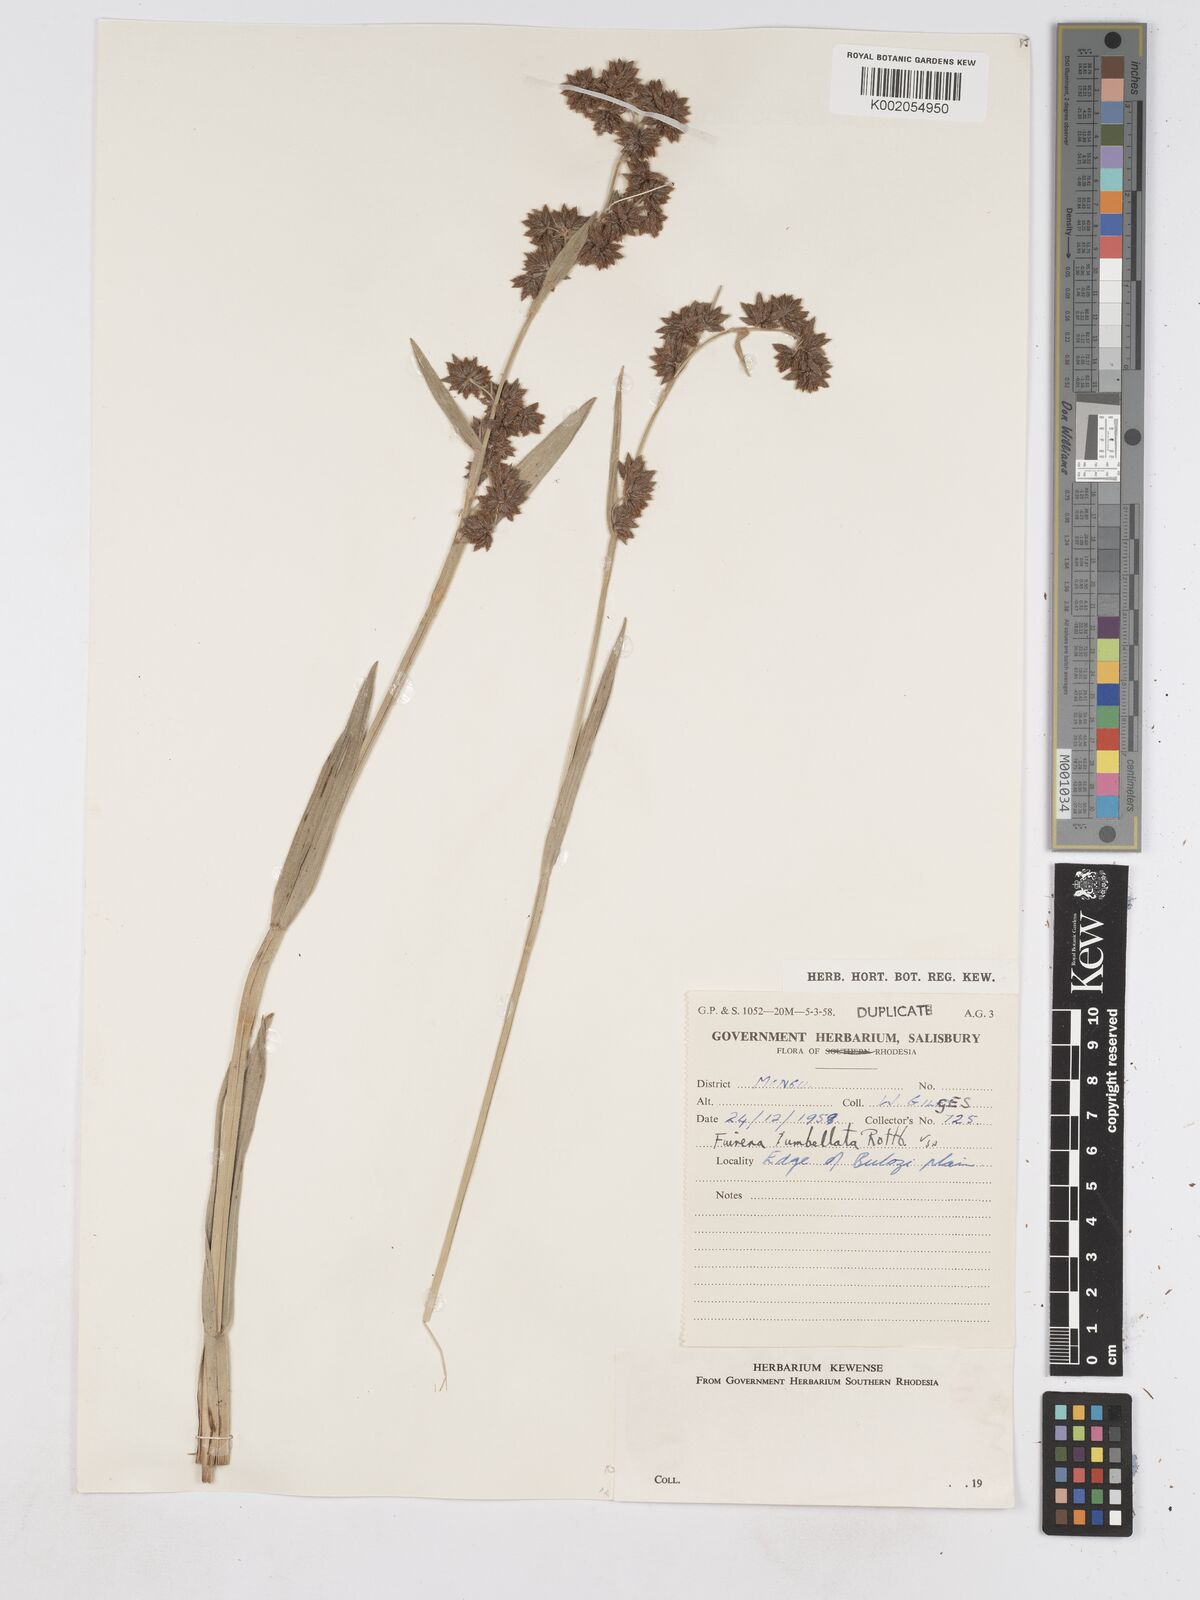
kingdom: Plantae
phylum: Tracheophyta
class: Liliopsida
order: Poales
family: Cyperaceae
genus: Fuirena
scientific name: Fuirena umbellata
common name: Yefen
